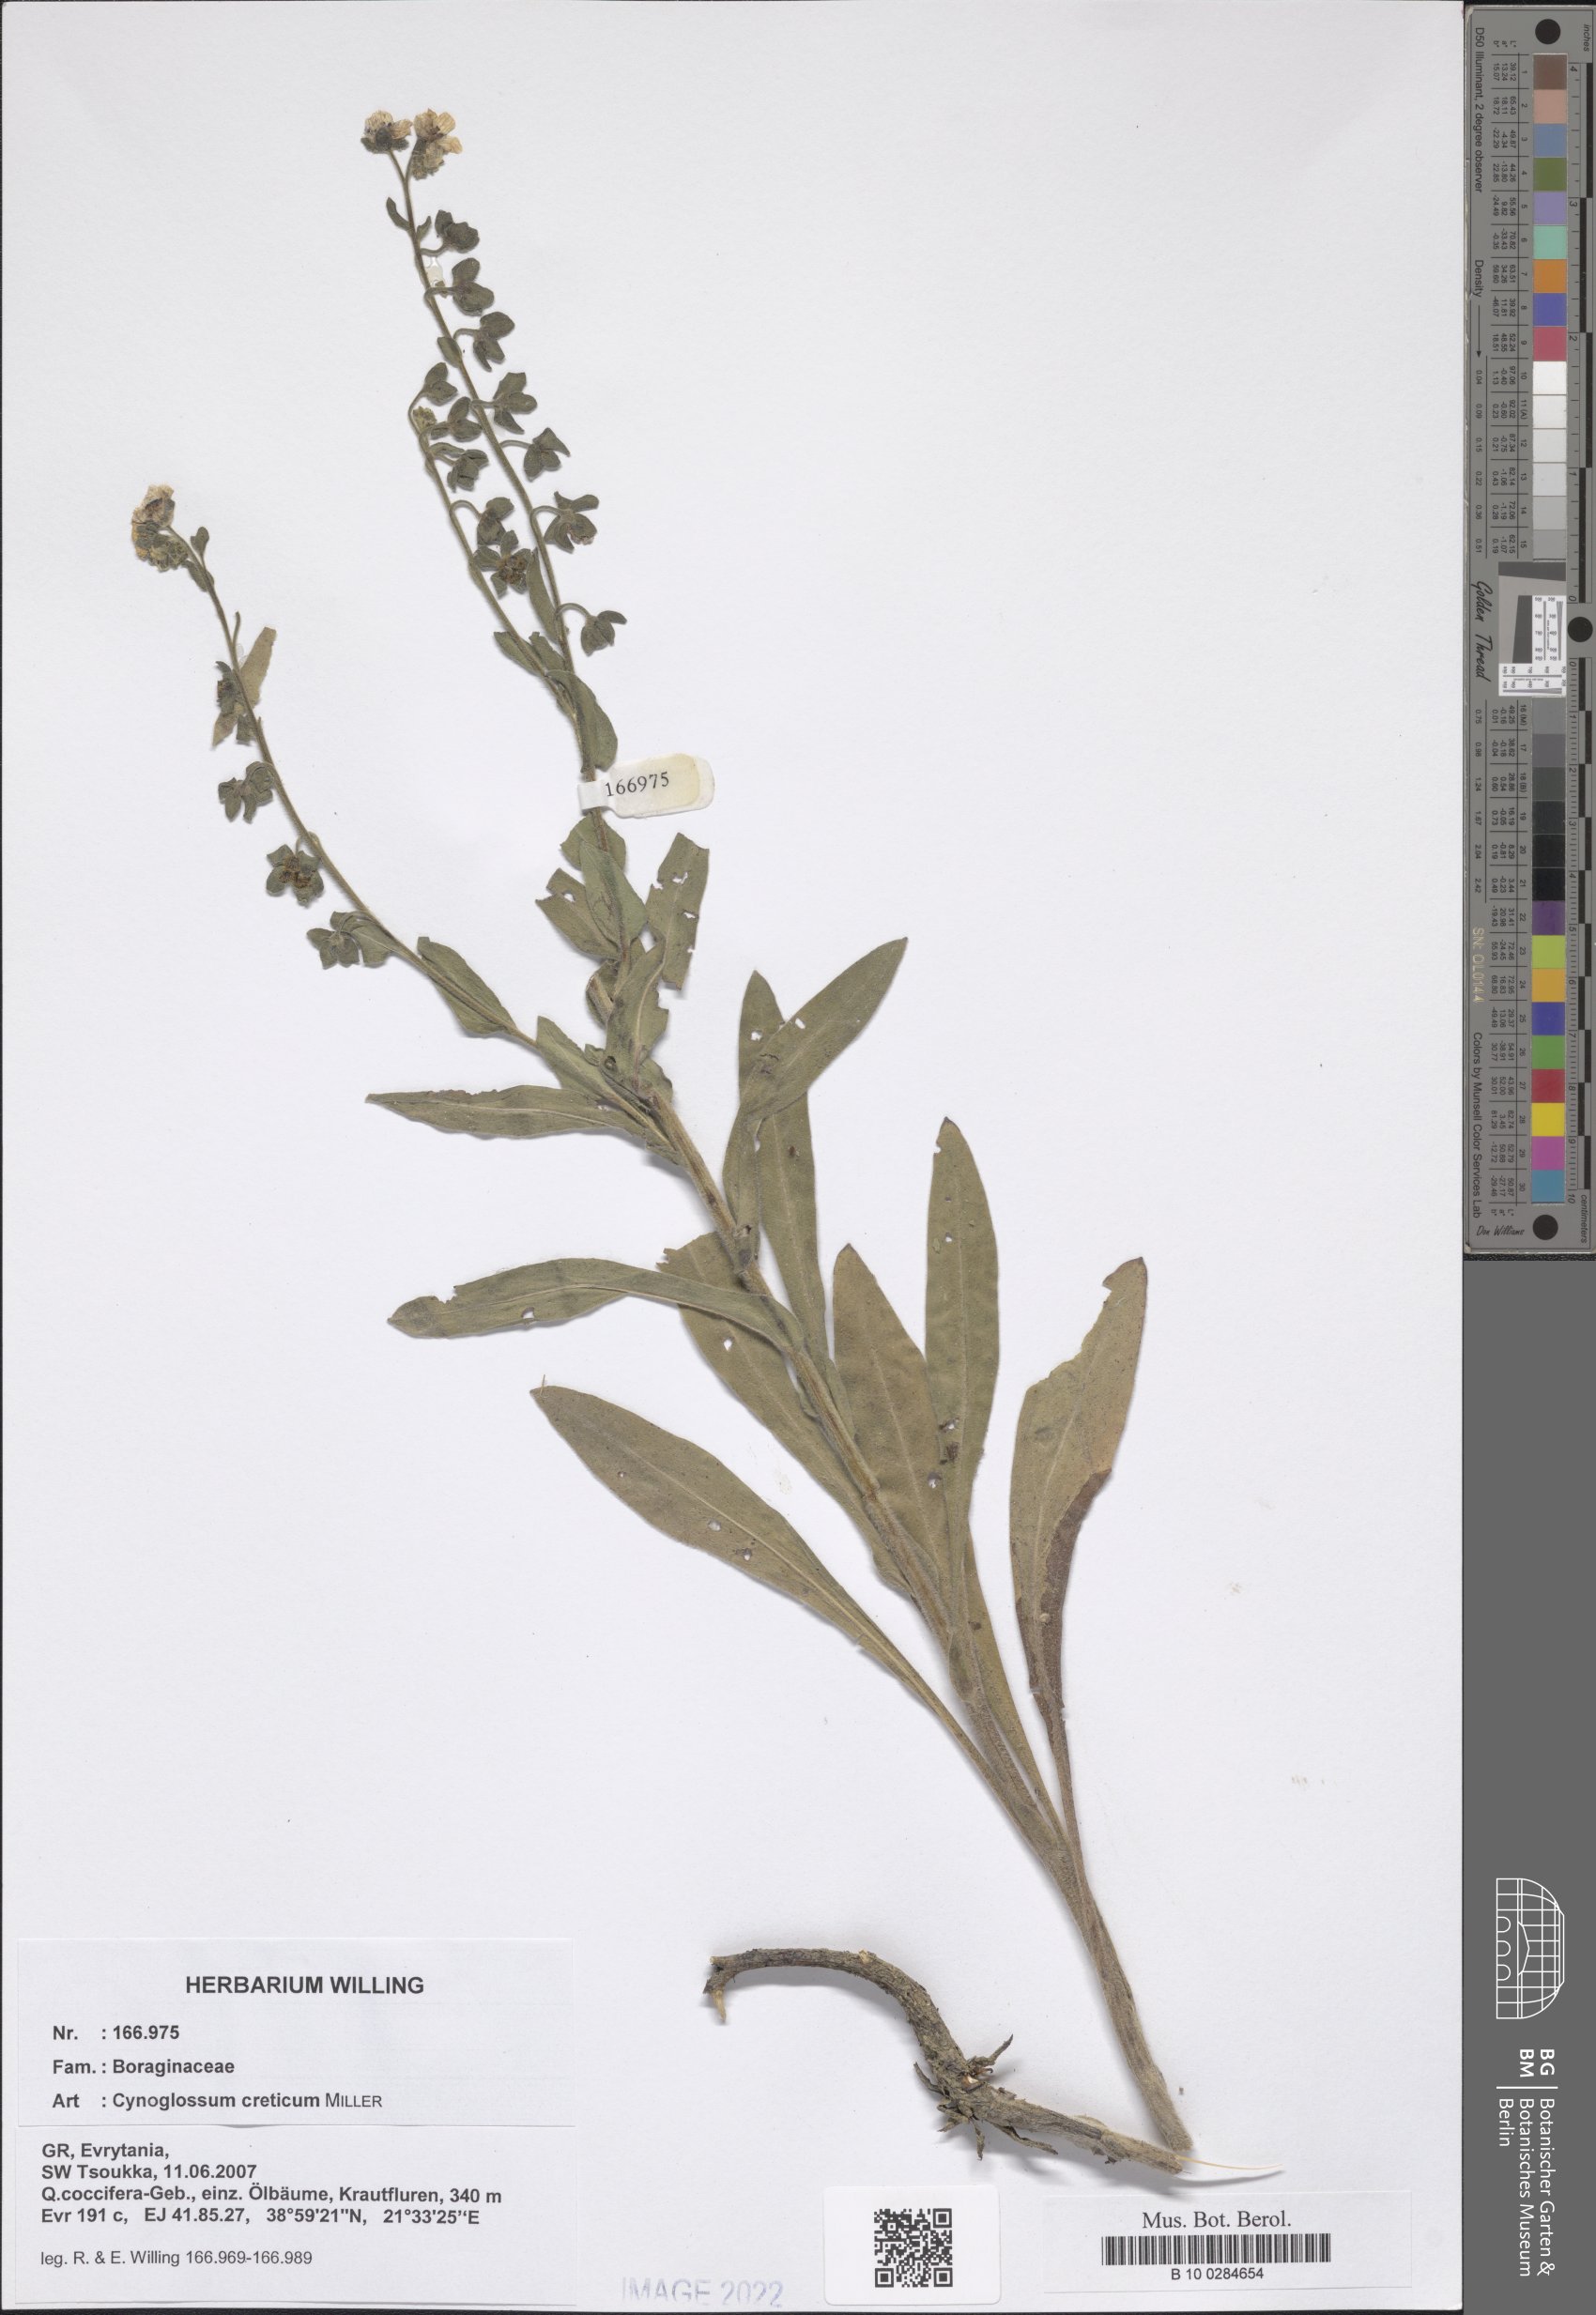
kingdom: Plantae
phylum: Tracheophyta
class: Magnoliopsida
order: Boraginales
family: Boraginaceae
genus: Cynoglossum
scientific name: Cynoglossum creticum
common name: Blue hound's tongue
